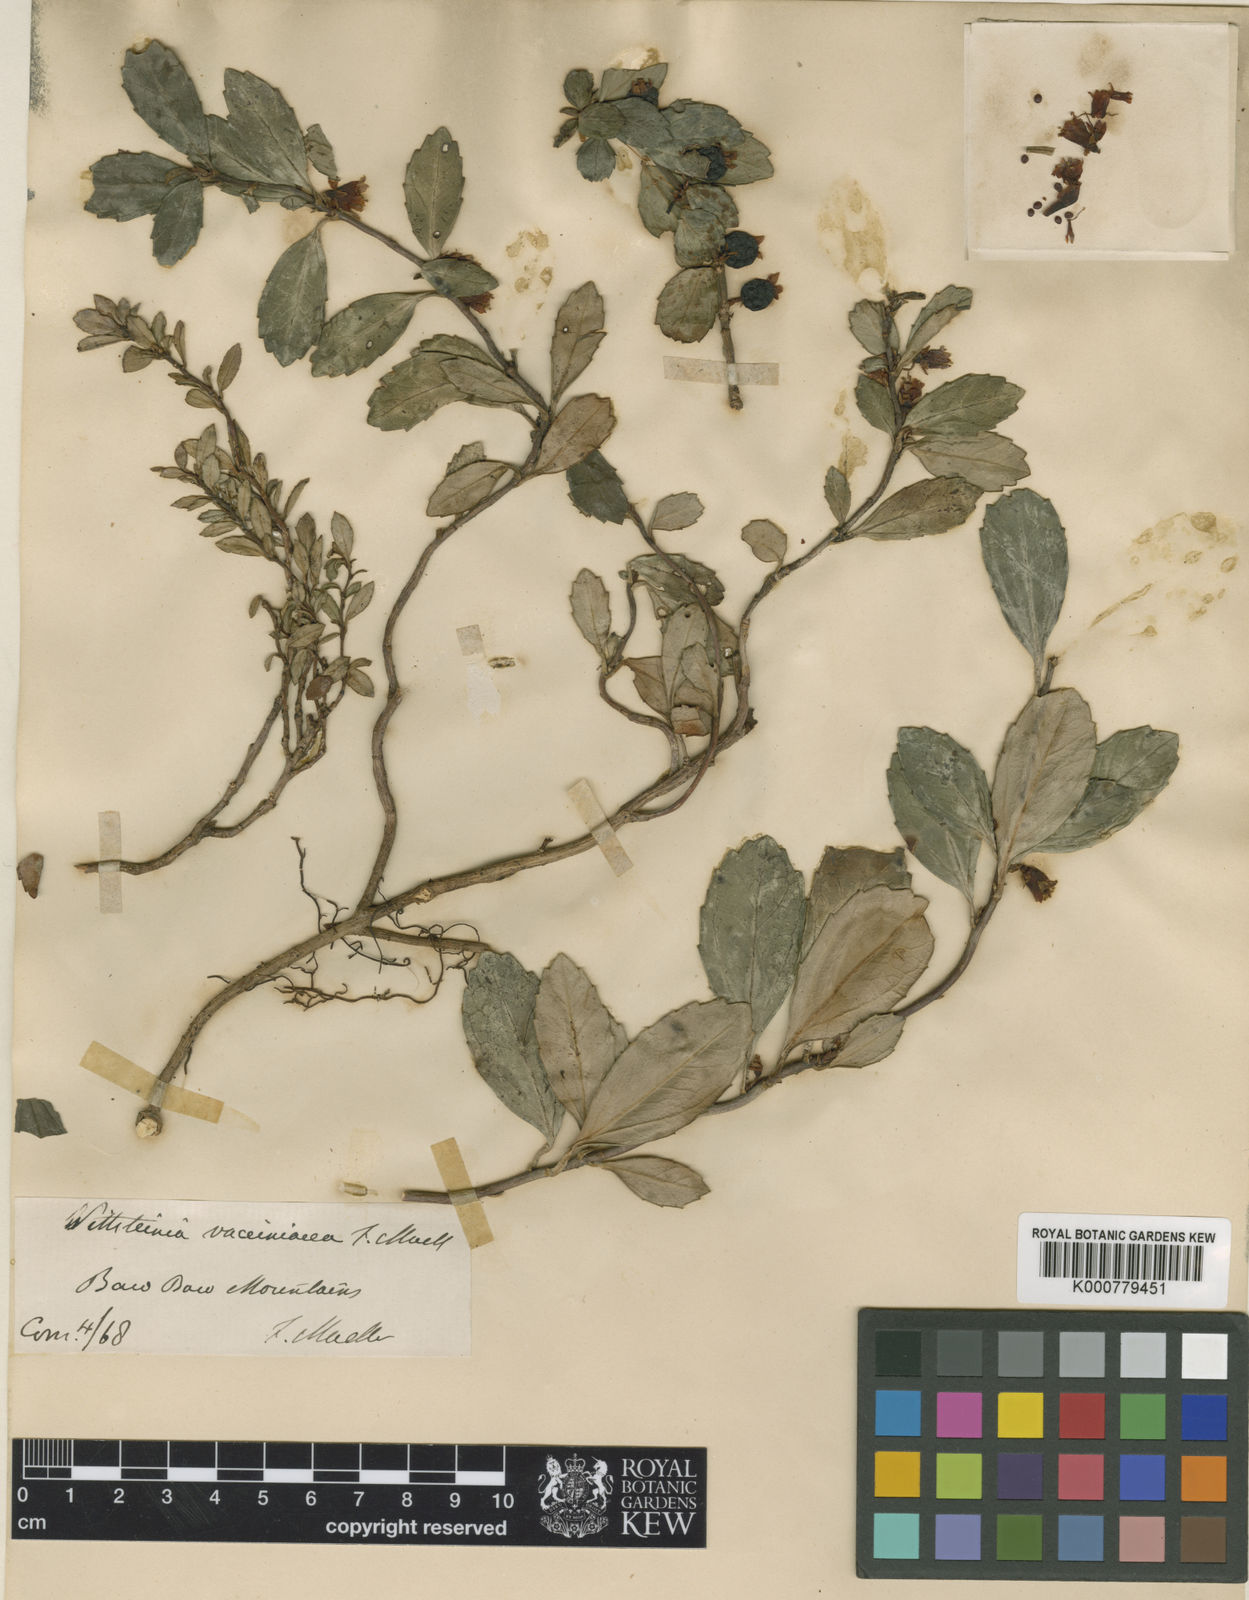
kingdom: Plantae
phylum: Tracheophyta
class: Magnoliopsida
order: Asterales
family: Alseuosmiaceae
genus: Wittsteinia
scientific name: Wittsteinia vacciniacea
